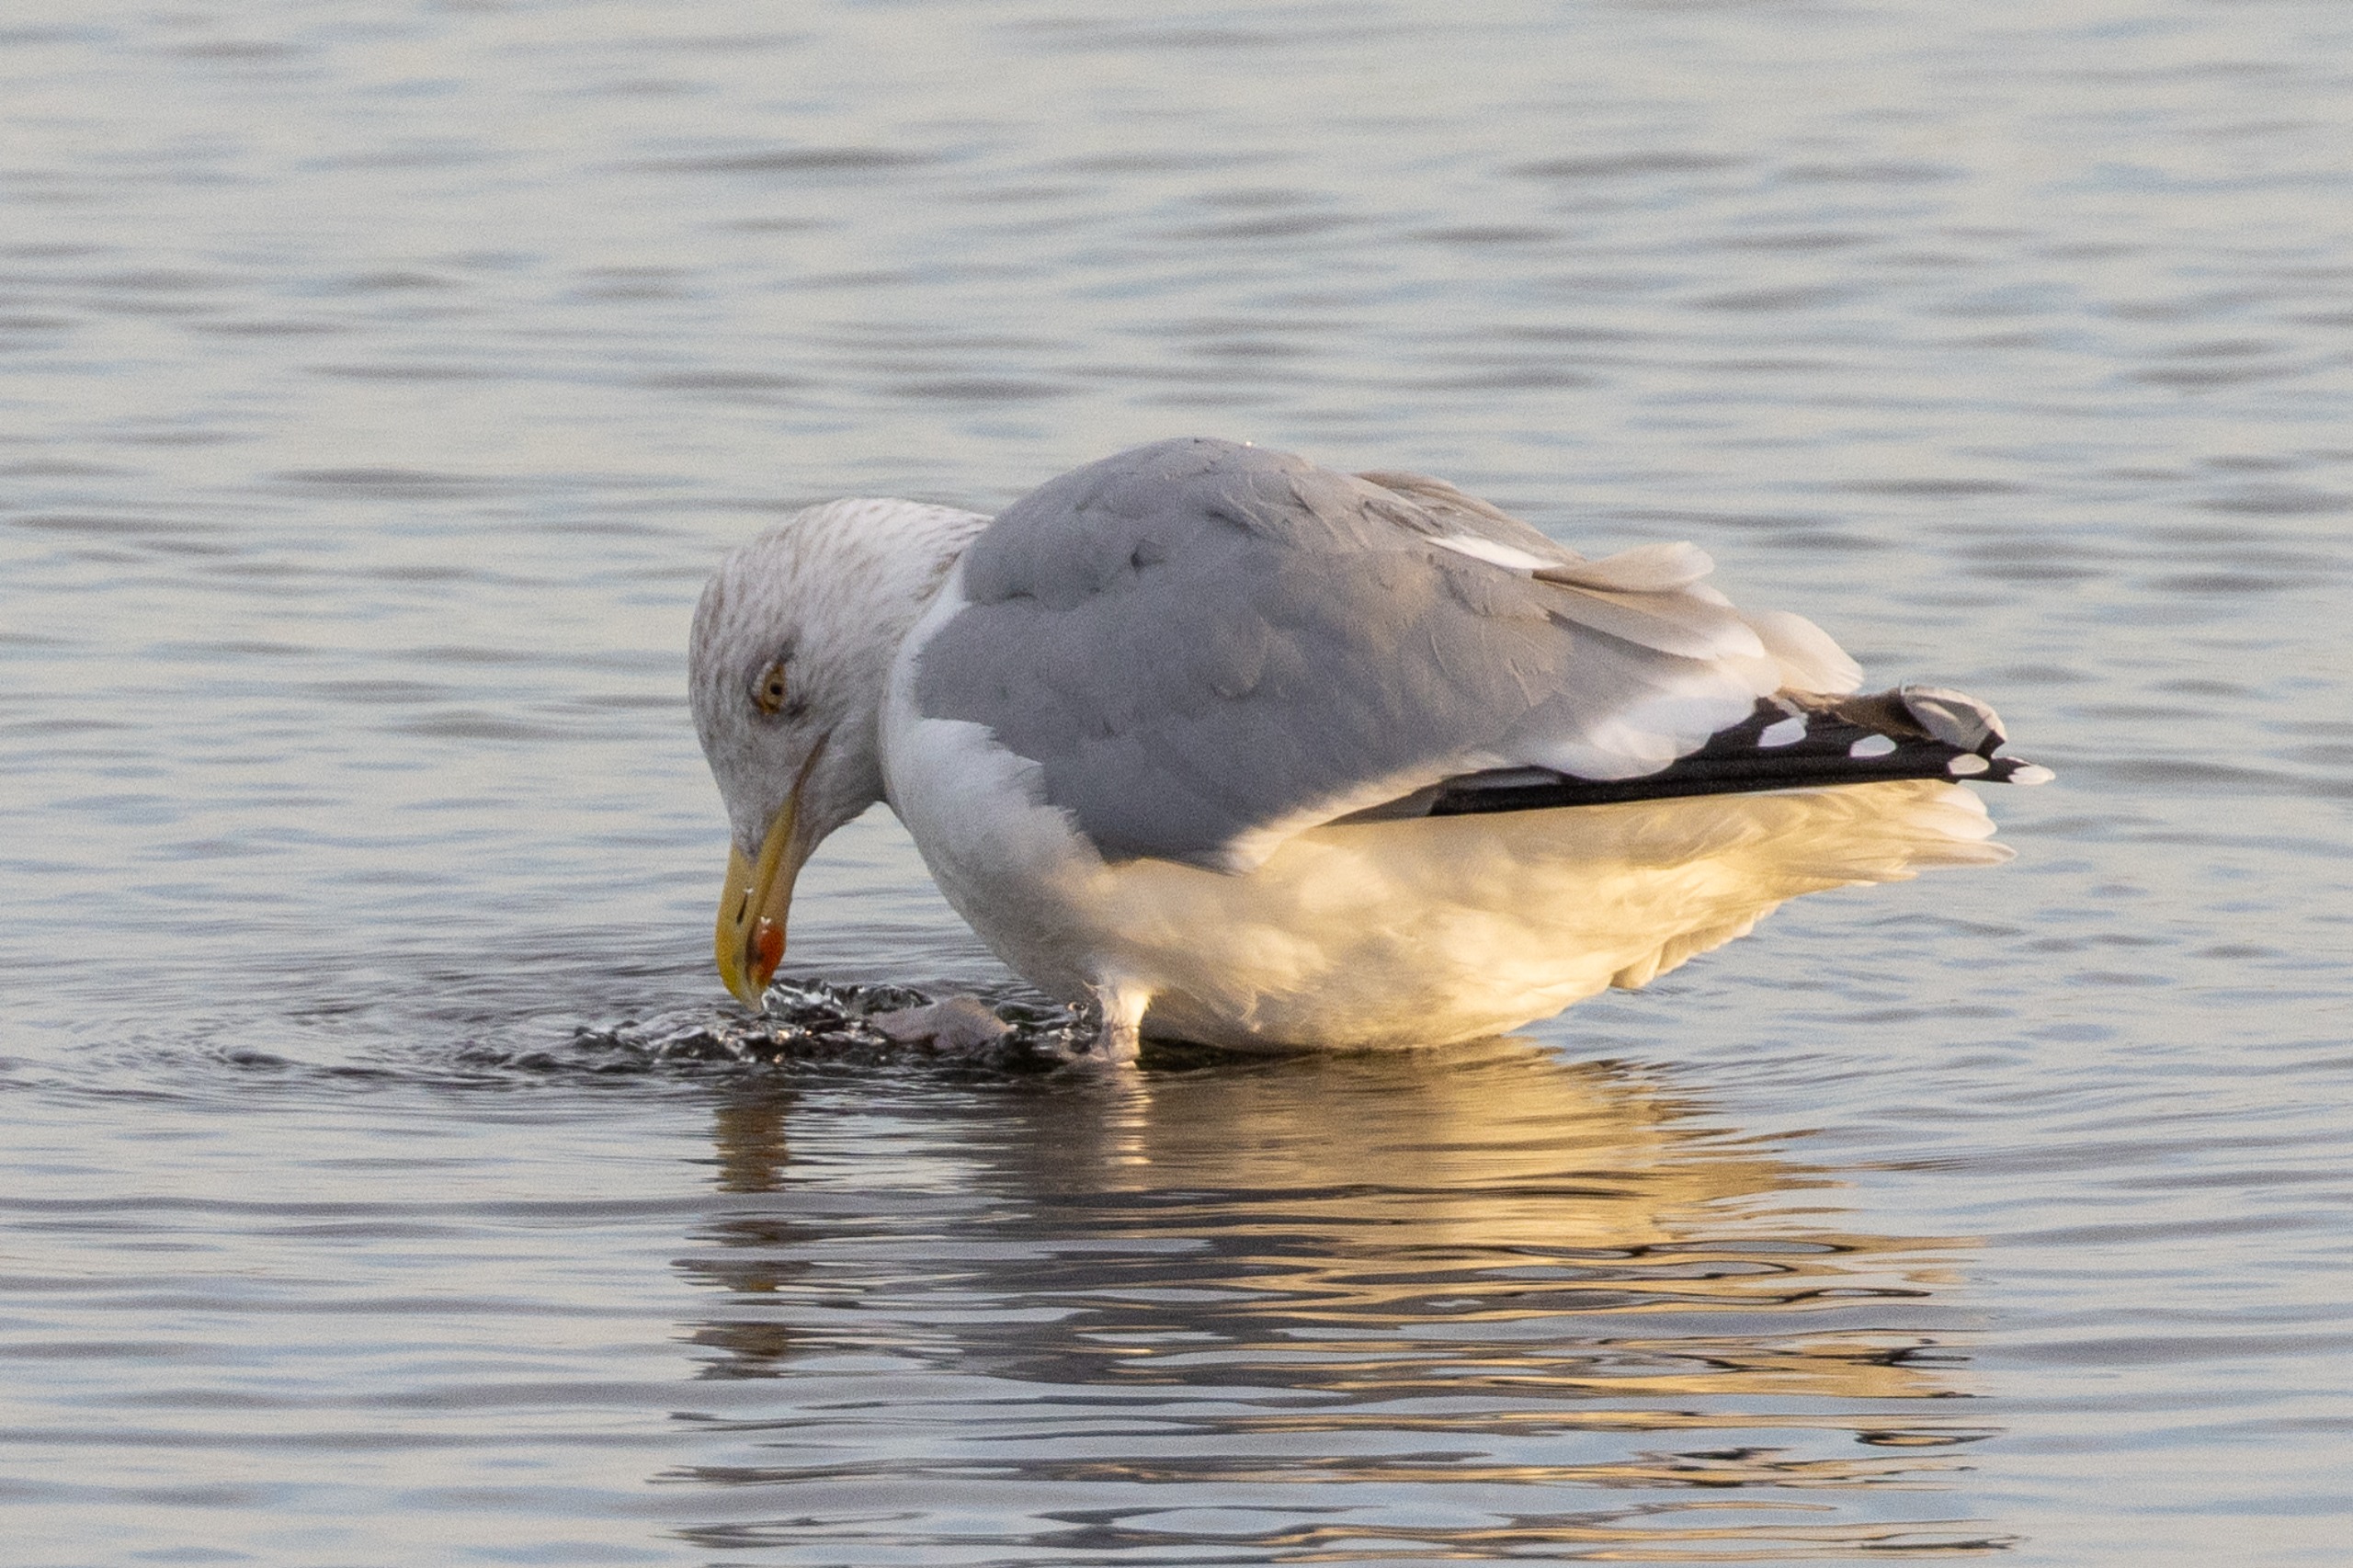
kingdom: Animalia
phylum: Chordata
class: Aves
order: Charadriiformes
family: Laridae
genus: Larus
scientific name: Larus argentatus
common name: Skandinavisk sølvmåge
